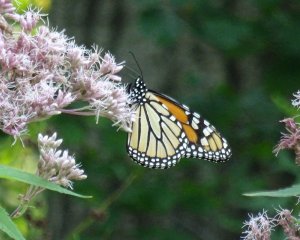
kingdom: Animalia
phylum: Arthropoda
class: Insecta
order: Lepidoptera
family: Nymphalidae
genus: Danaus
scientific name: Danaus plexippus
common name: Monarch
